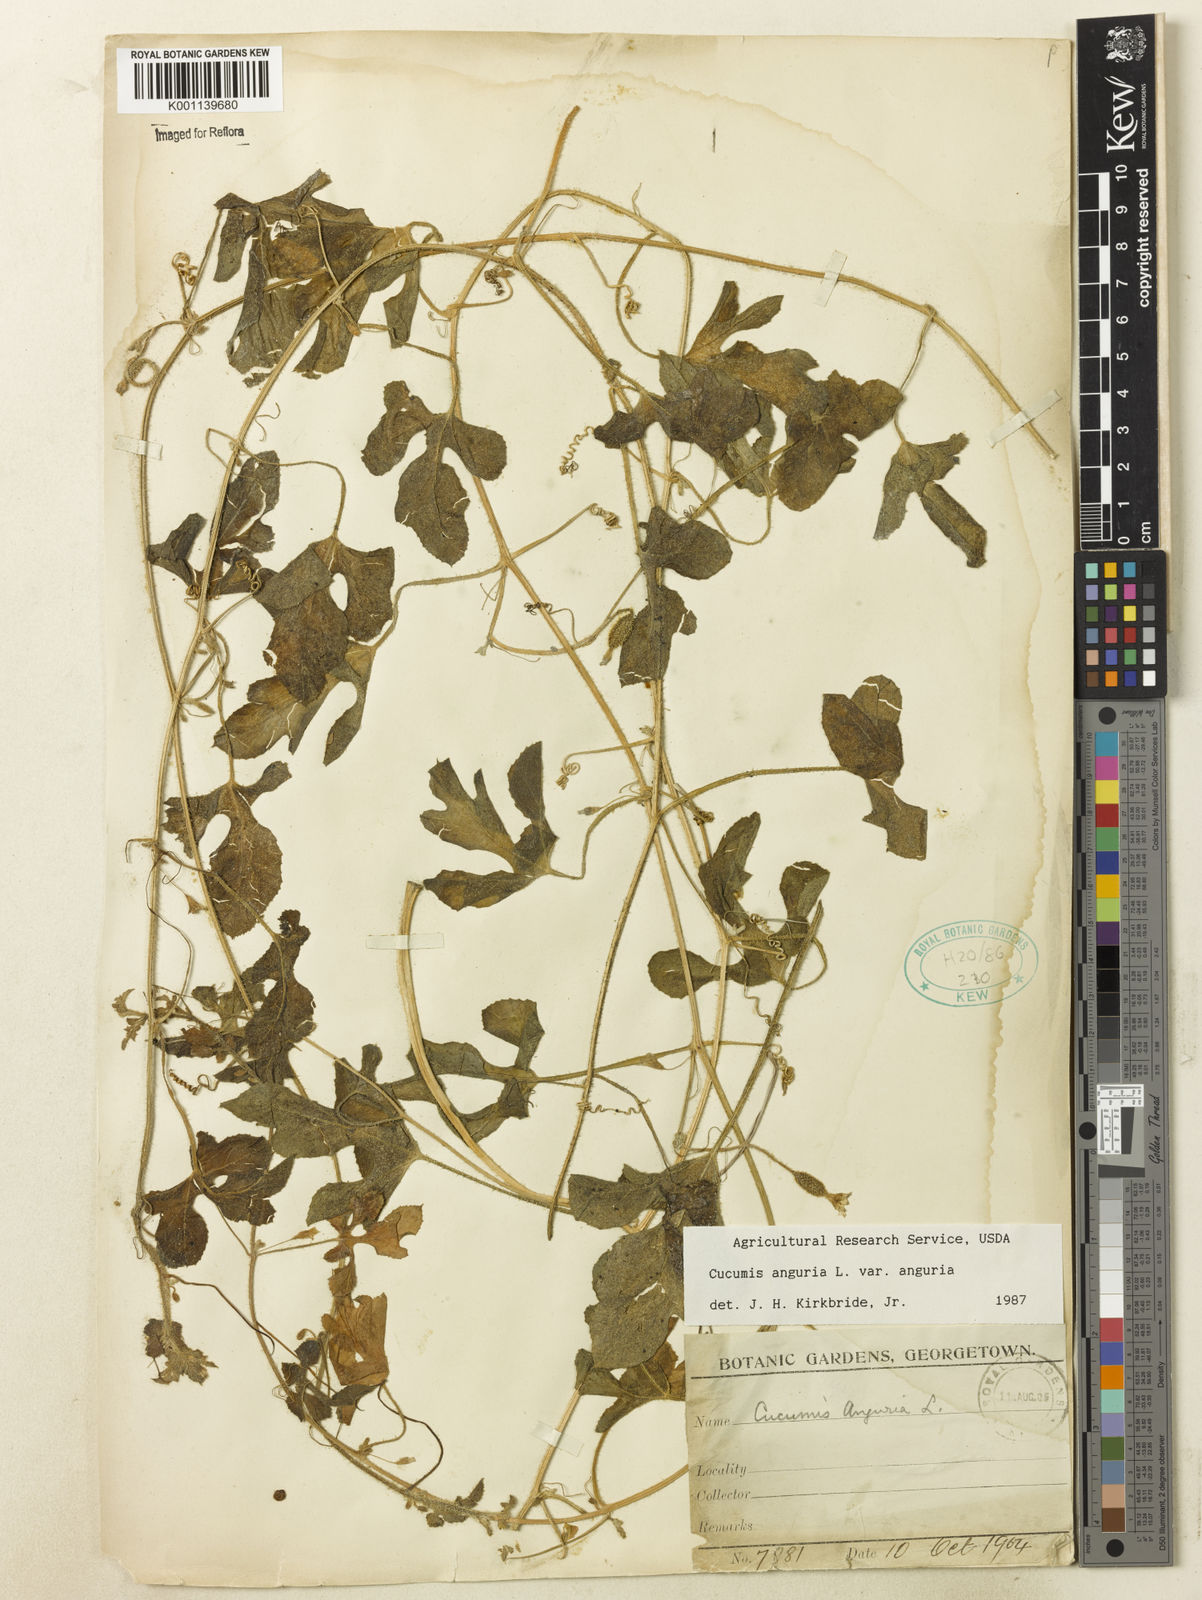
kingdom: Plantae
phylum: Tracheophyta
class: Magnoliopsida
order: Cucurbitales
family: Cucurbitaceae
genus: Cucumis
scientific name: Cucumis anguria
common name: West indian gherkin
